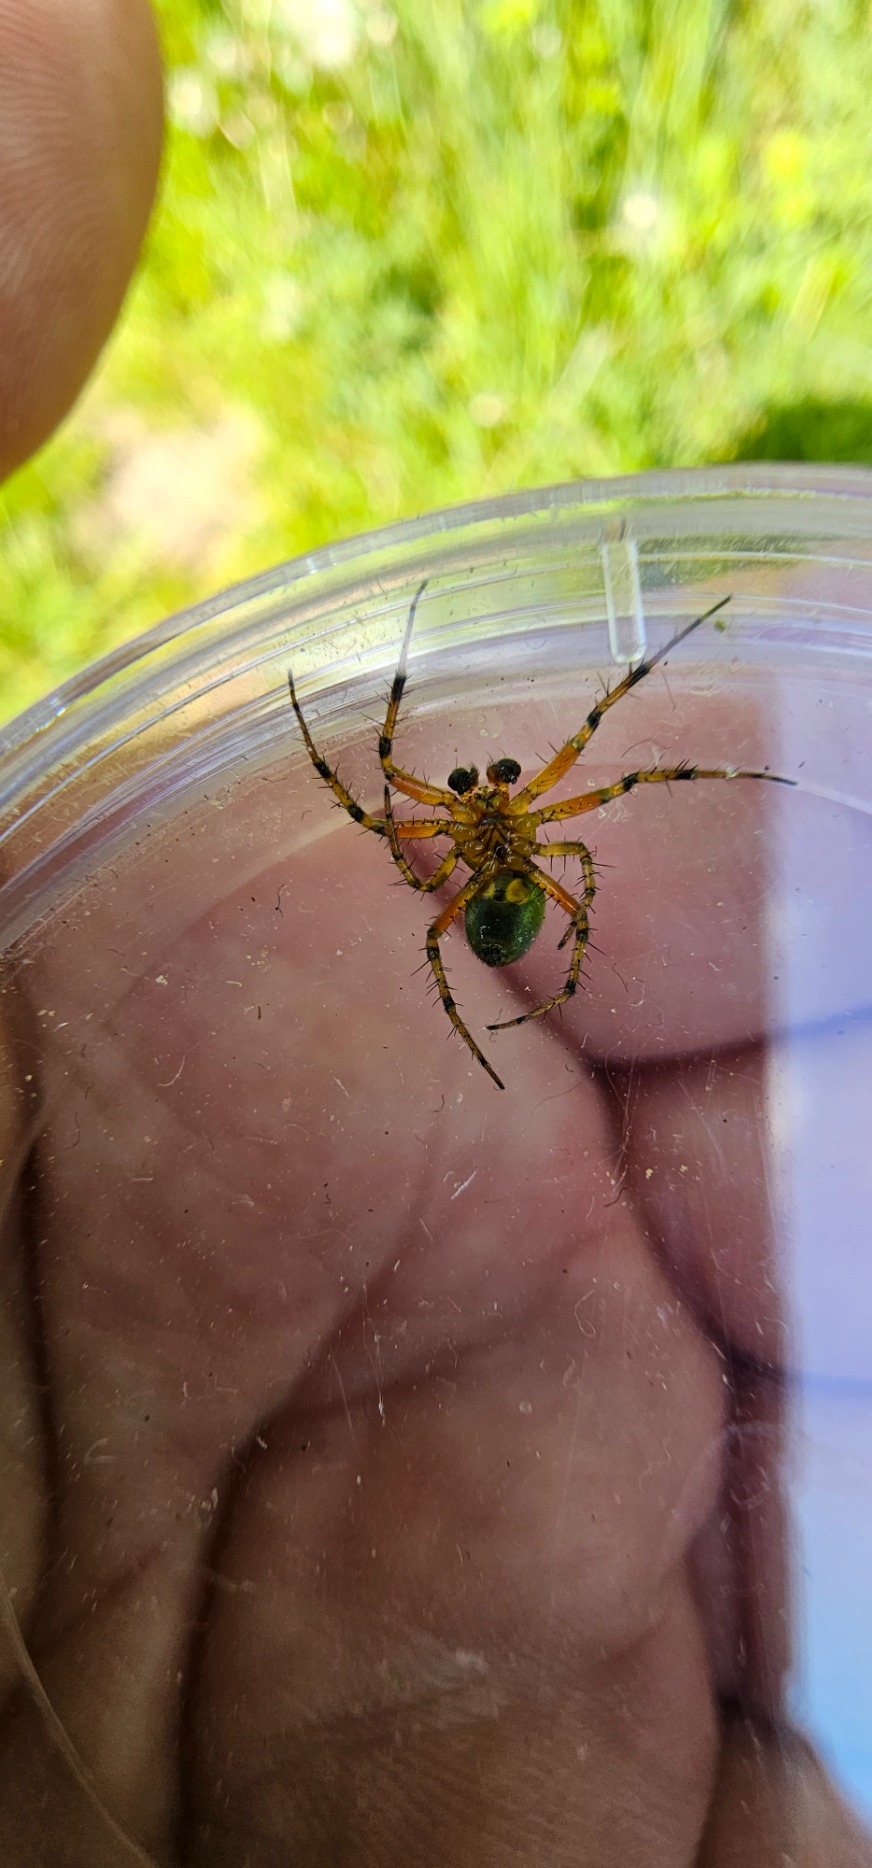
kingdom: Animalia
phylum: Arthropoda
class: Arachnida
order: Araneae
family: Araneidae
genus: Araniella
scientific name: Araniella
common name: Agurkeedderkopslægten
